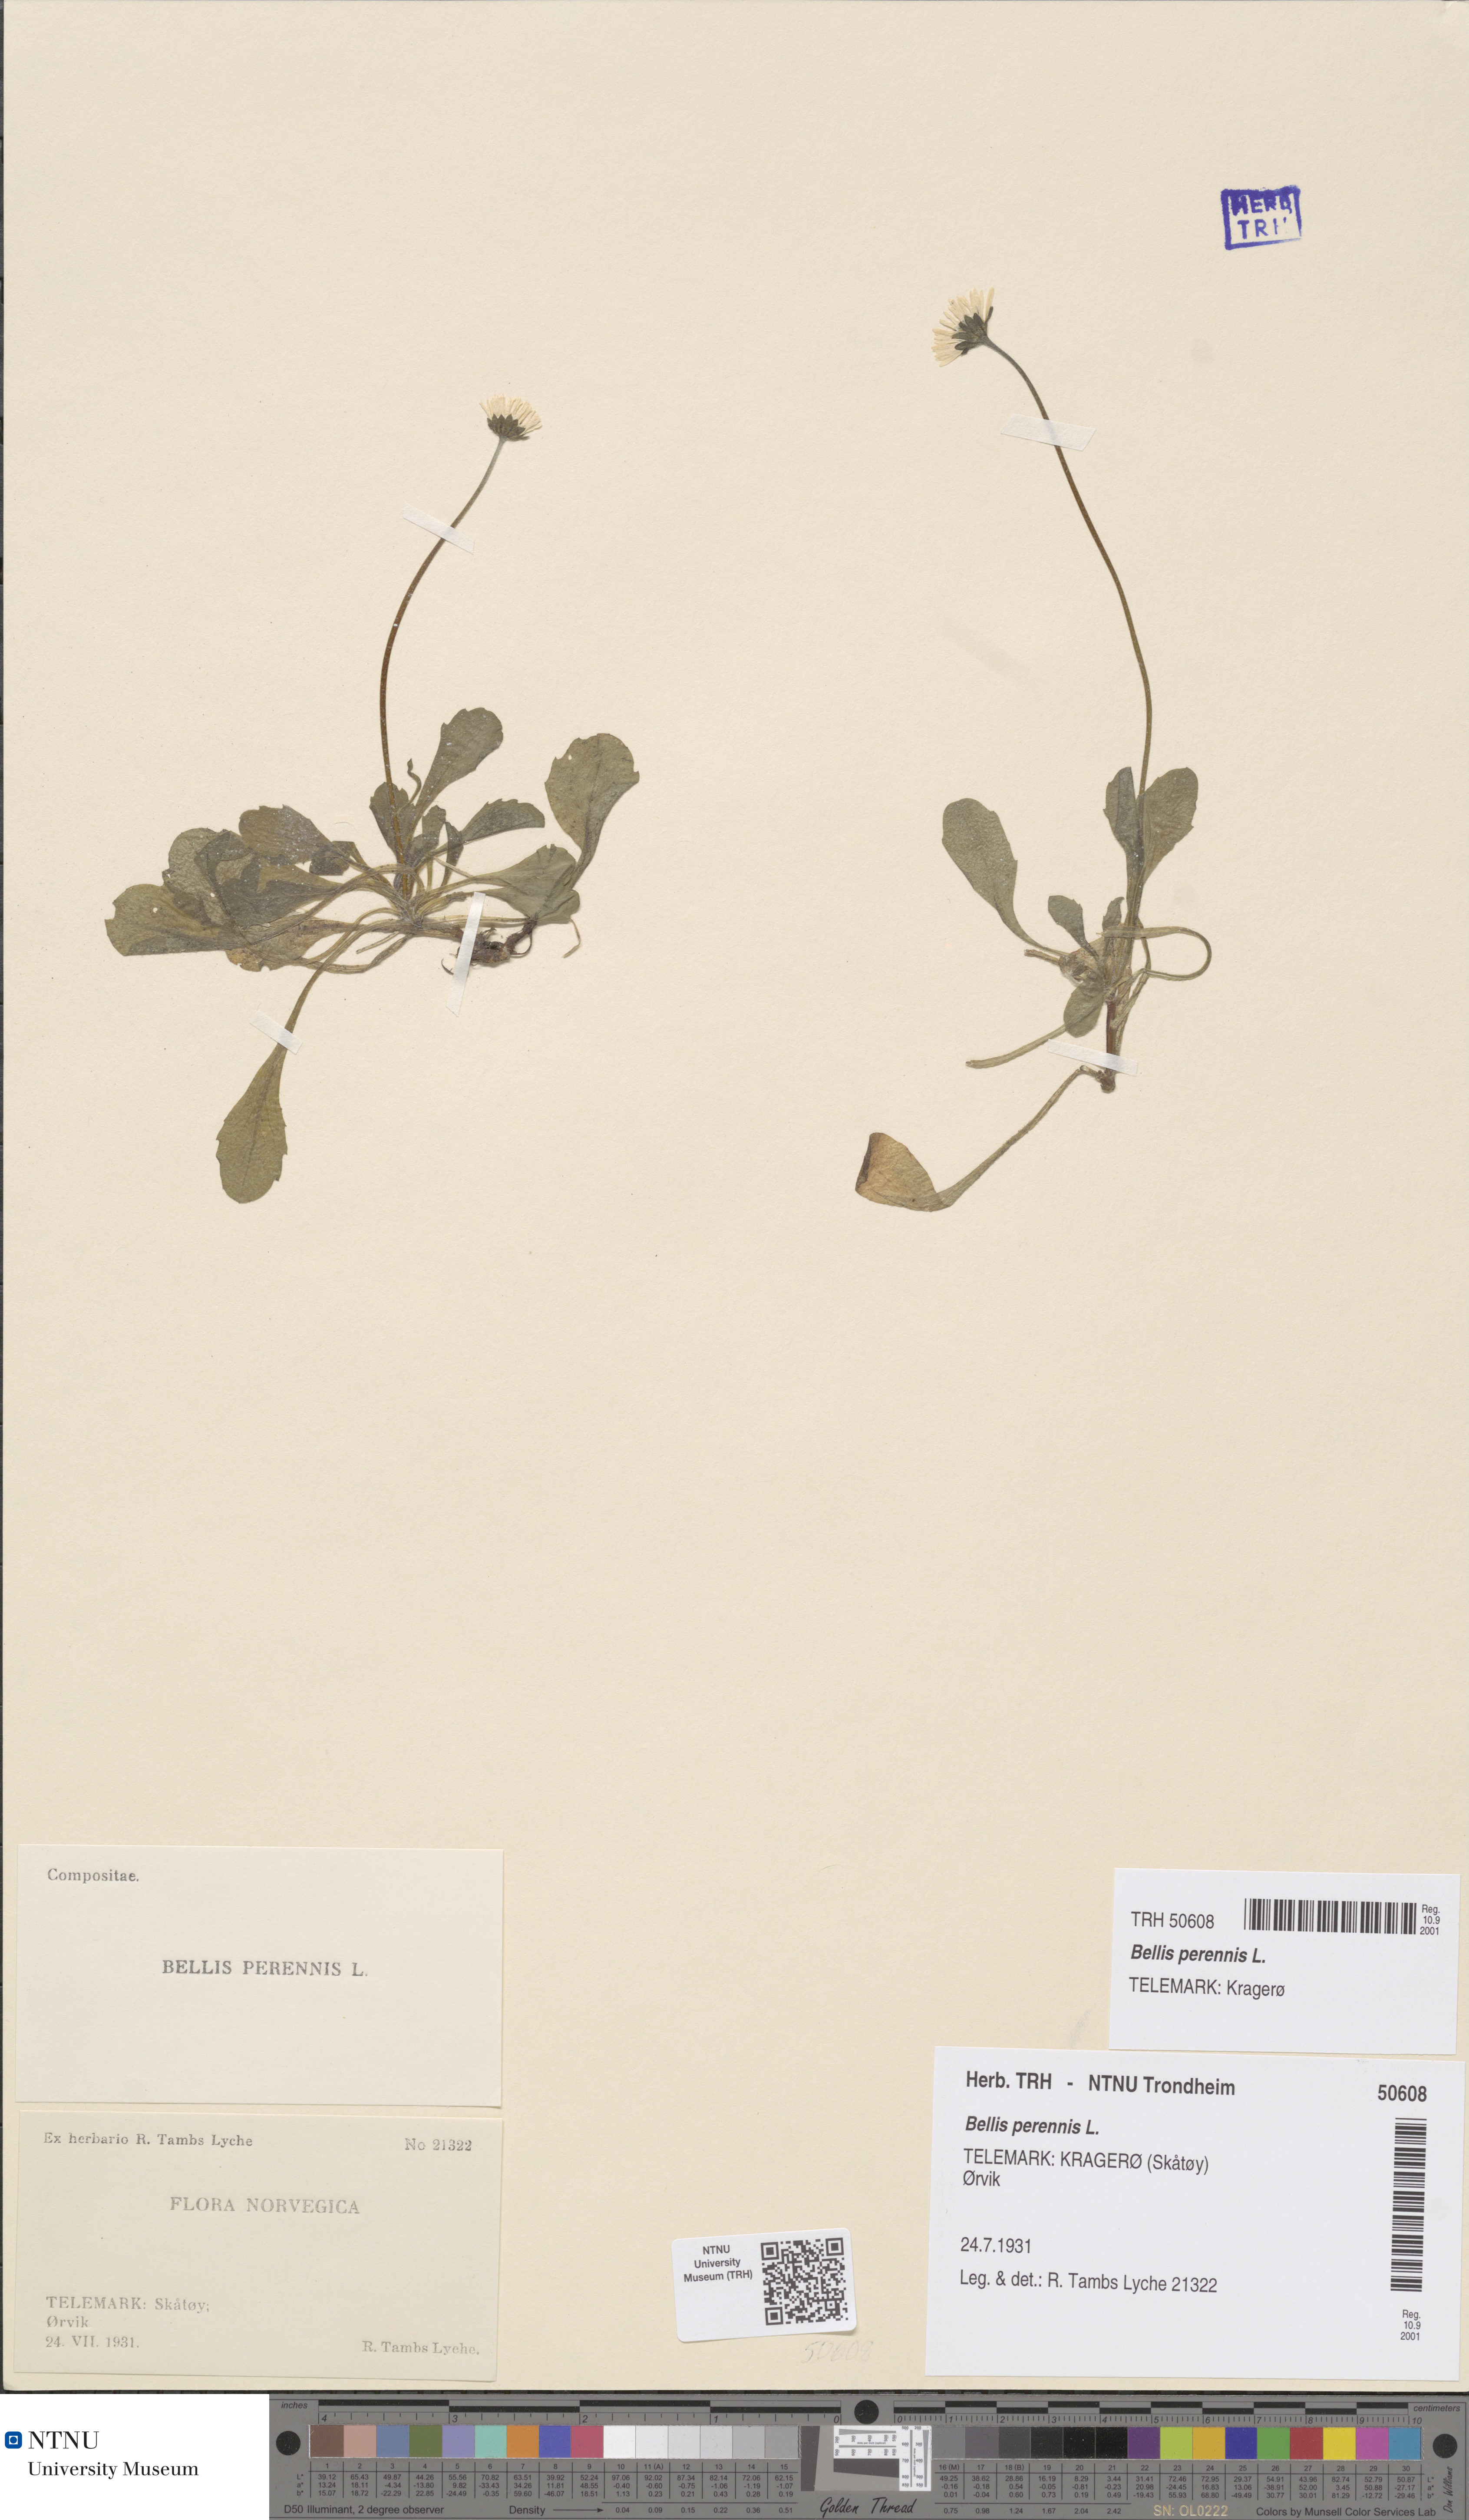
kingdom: Plantae
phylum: Tracheophyta
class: Magnoliopsida
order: Asterales
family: Asteraceae
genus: Bellis
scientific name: Bellis perennis
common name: Lawndaisy
